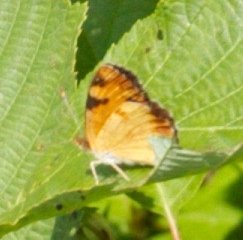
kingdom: Animalia
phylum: Arthropoda
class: Insecta
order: Lepidoptera
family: Nymphalidae
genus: Phyciodes
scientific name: Phyciodes tharos
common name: Northern Crescent
